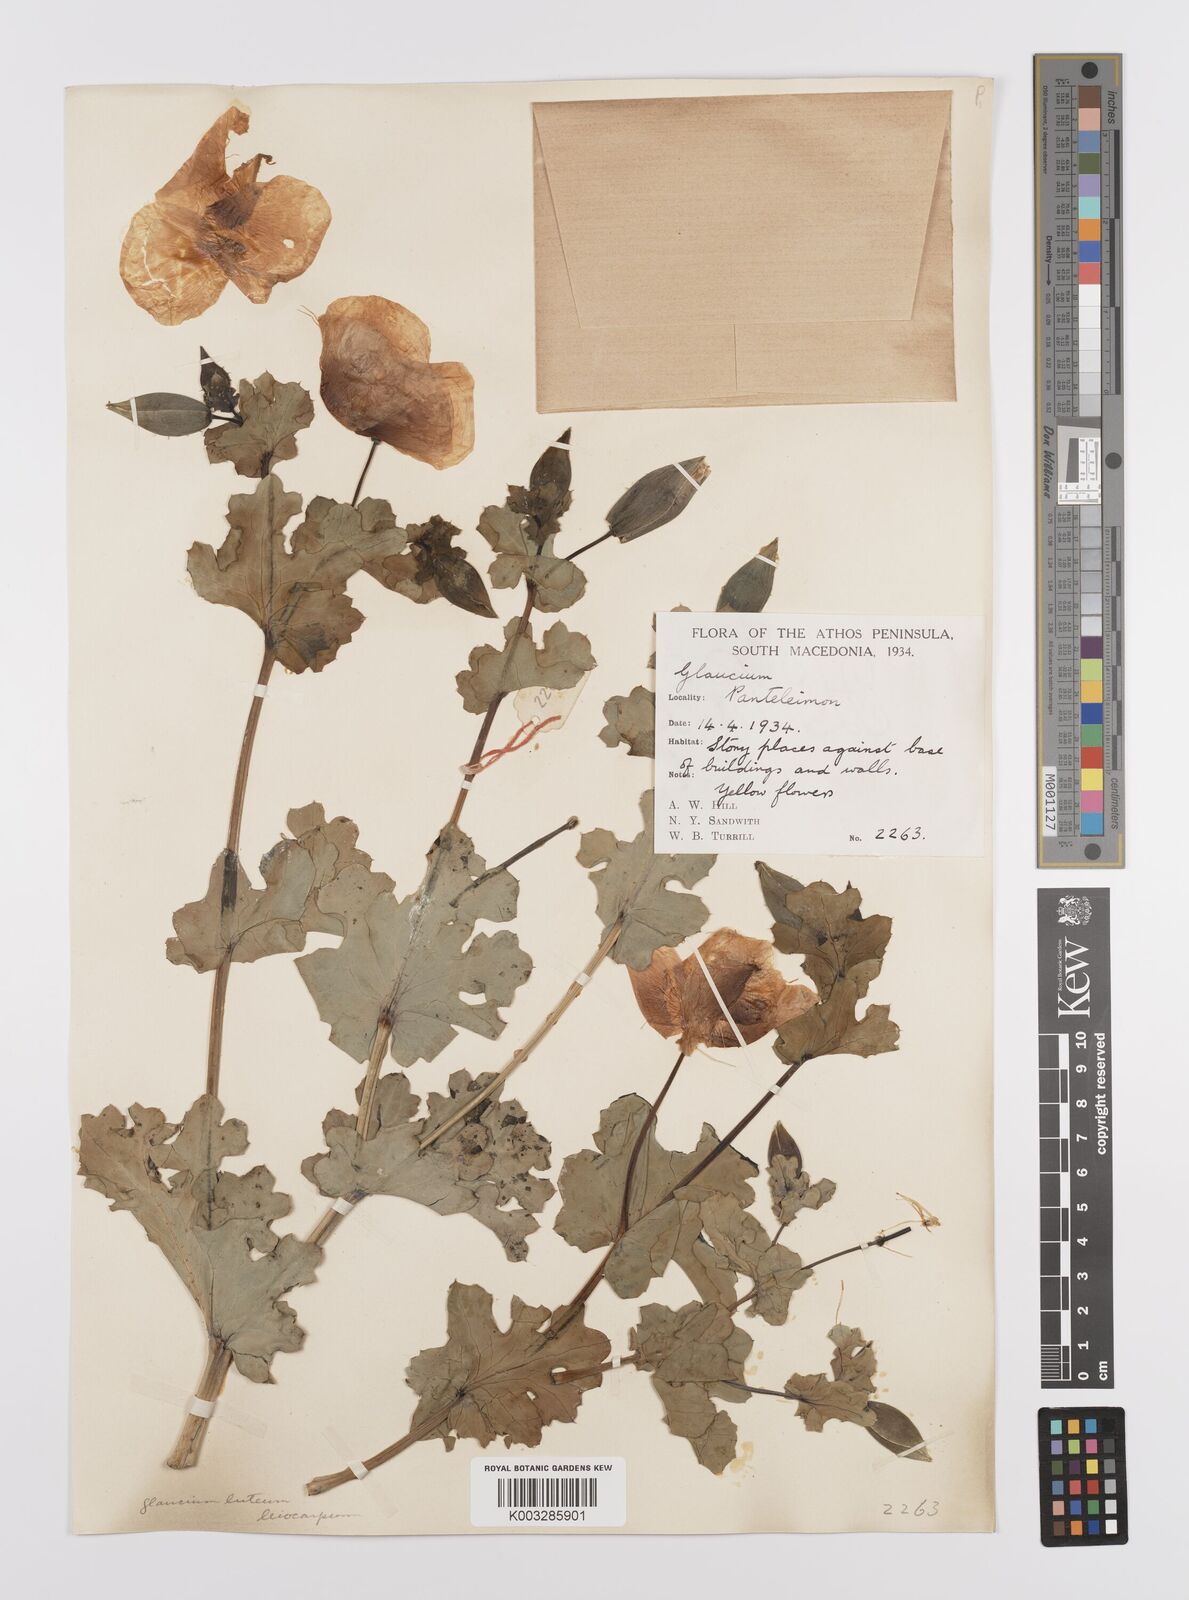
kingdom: Plantae
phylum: Tracheophyta
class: Magnoliopsida
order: Ranunculales
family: Papaveraceae
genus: Glaucium
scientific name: Glaucium flavum
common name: Yellow horned-poppy
